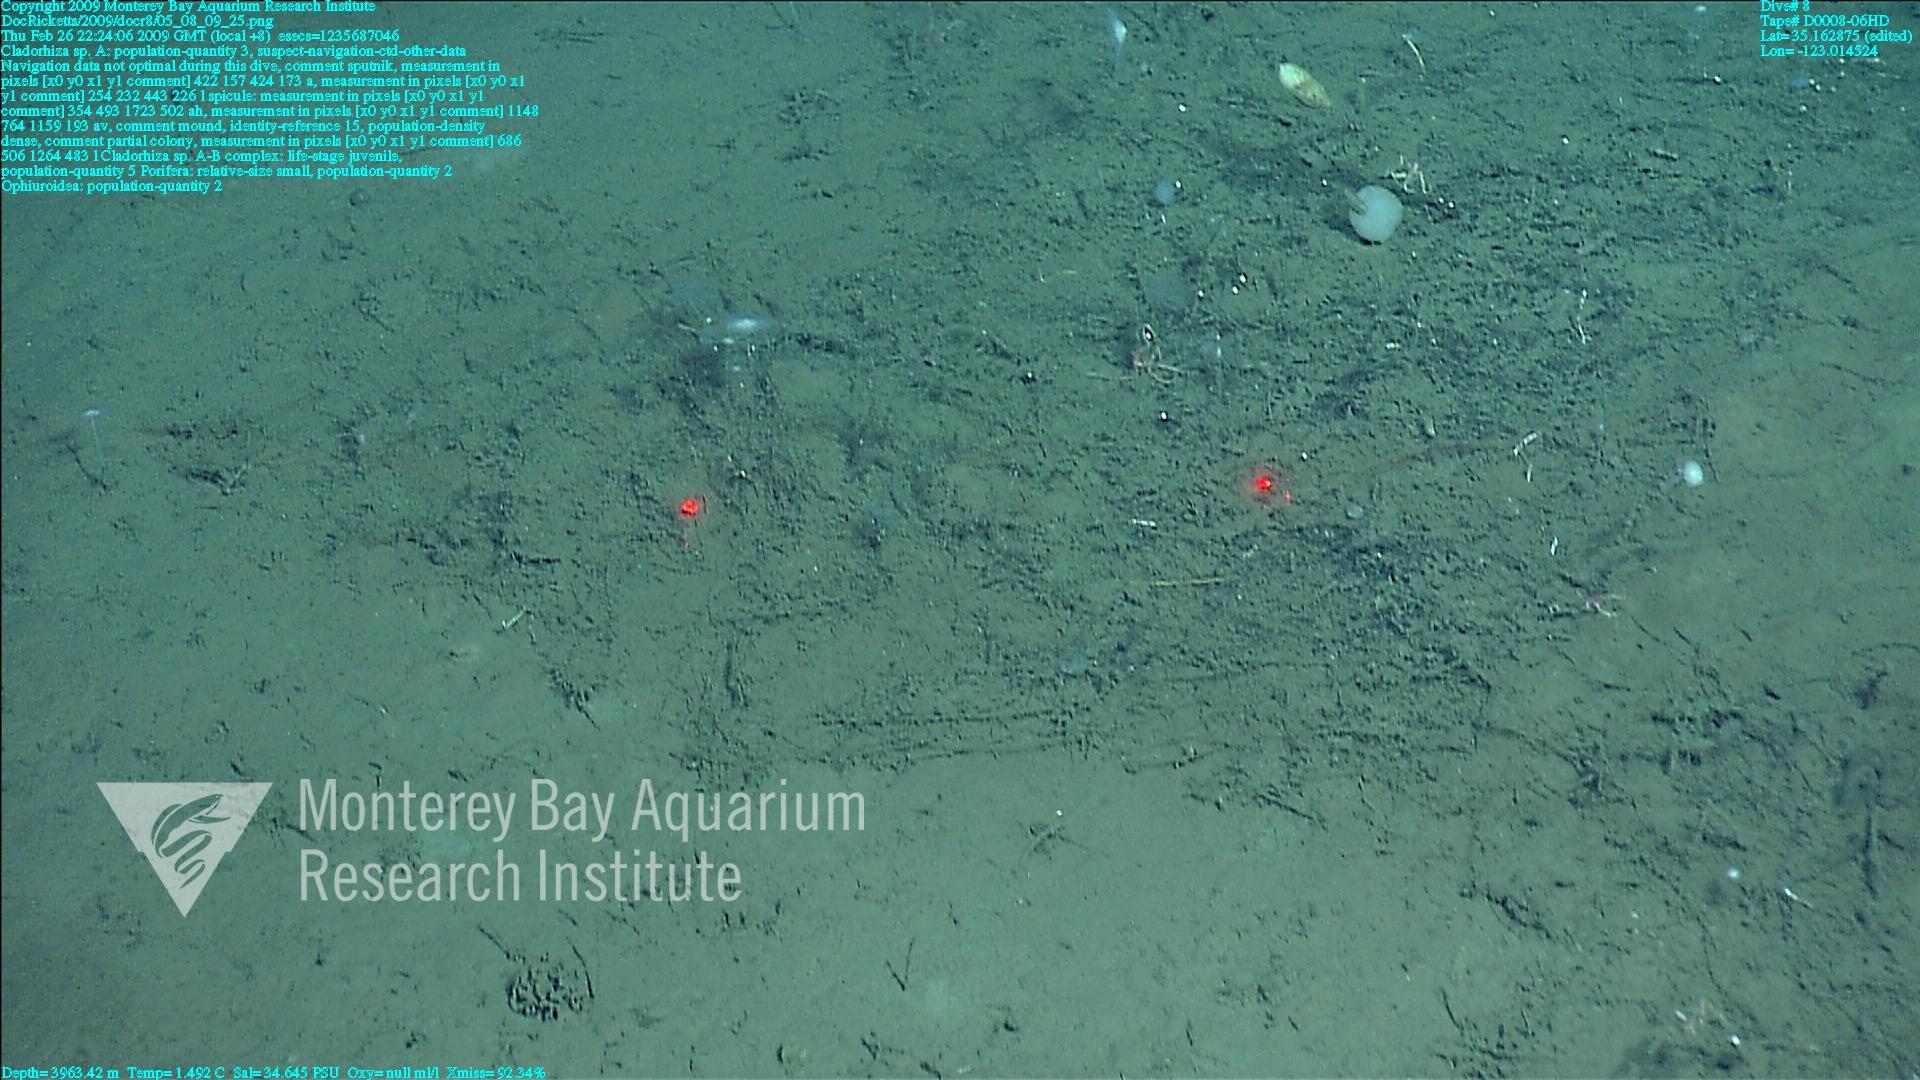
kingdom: Animalia
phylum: Porifera
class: Demospongiae
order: Poecilosclerida
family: Cladorhizidae
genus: Cladorhiza
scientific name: Cladorhiza
